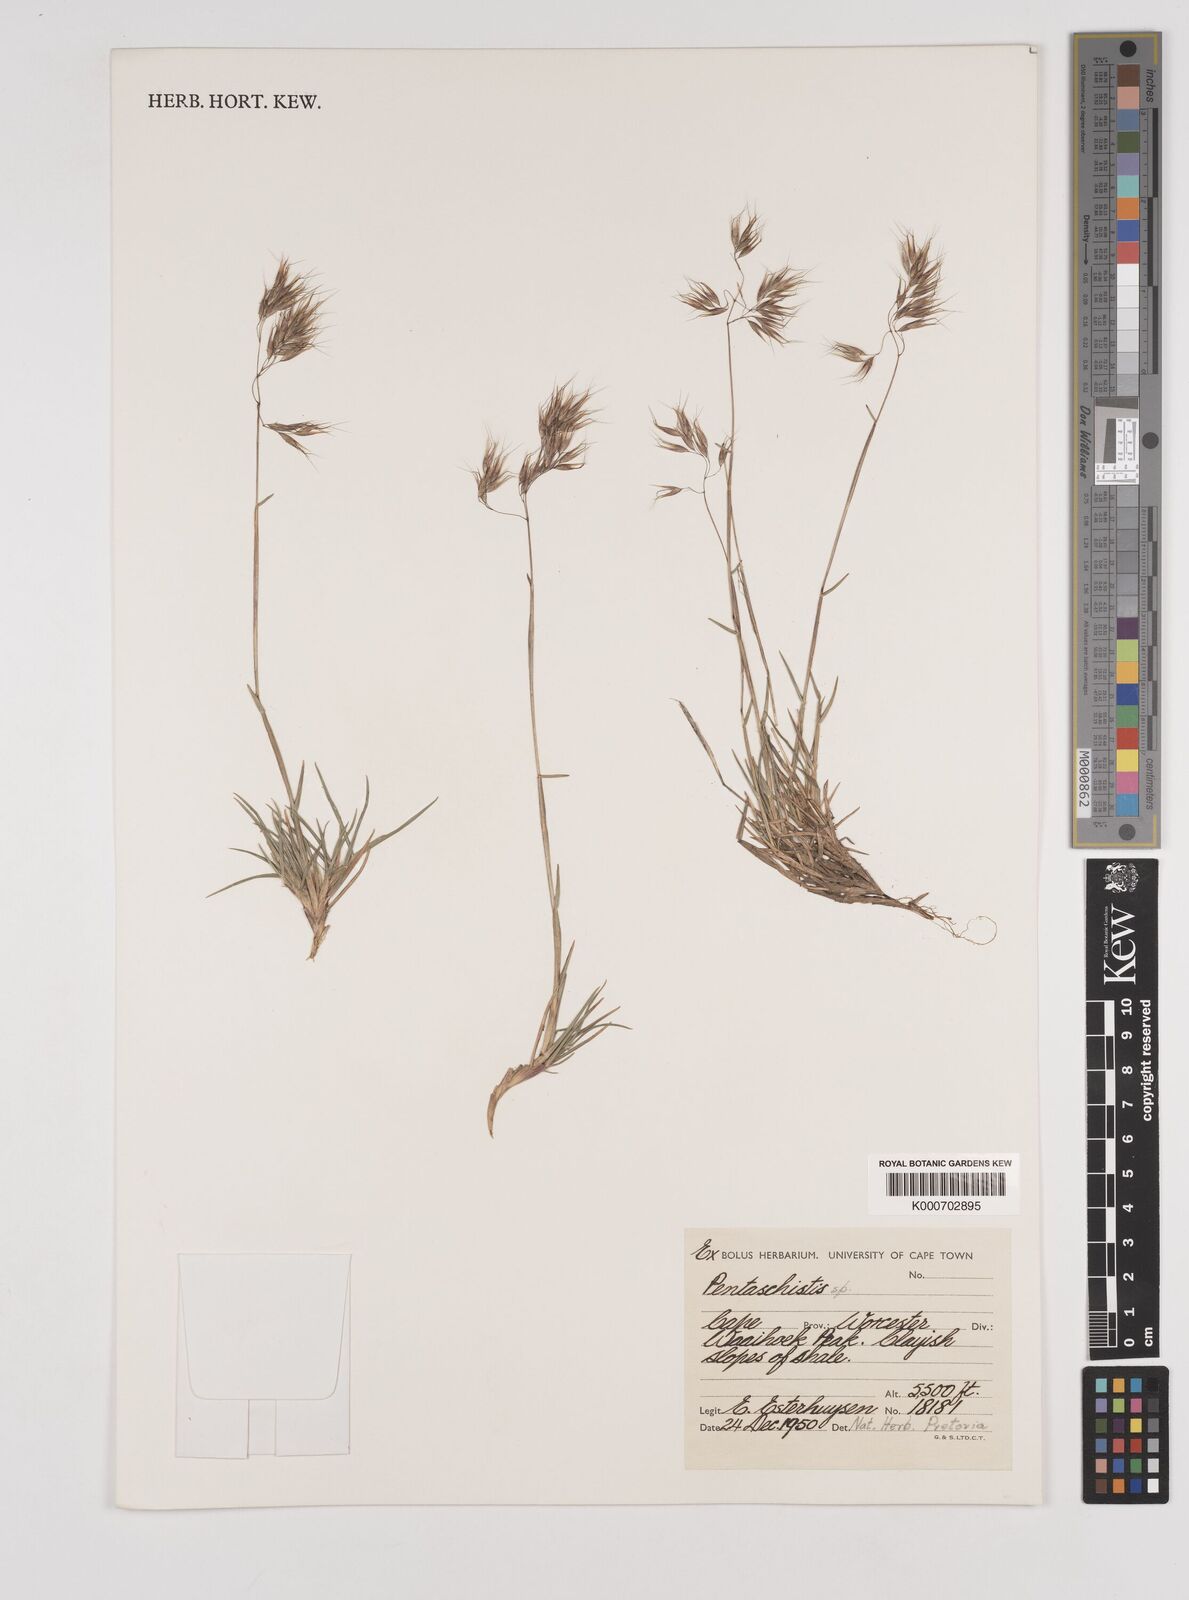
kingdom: Plantae
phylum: Tracheophyta
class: Liliopsida
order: Poales
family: Poaceae
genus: Pentameris
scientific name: Pentameris barbata
